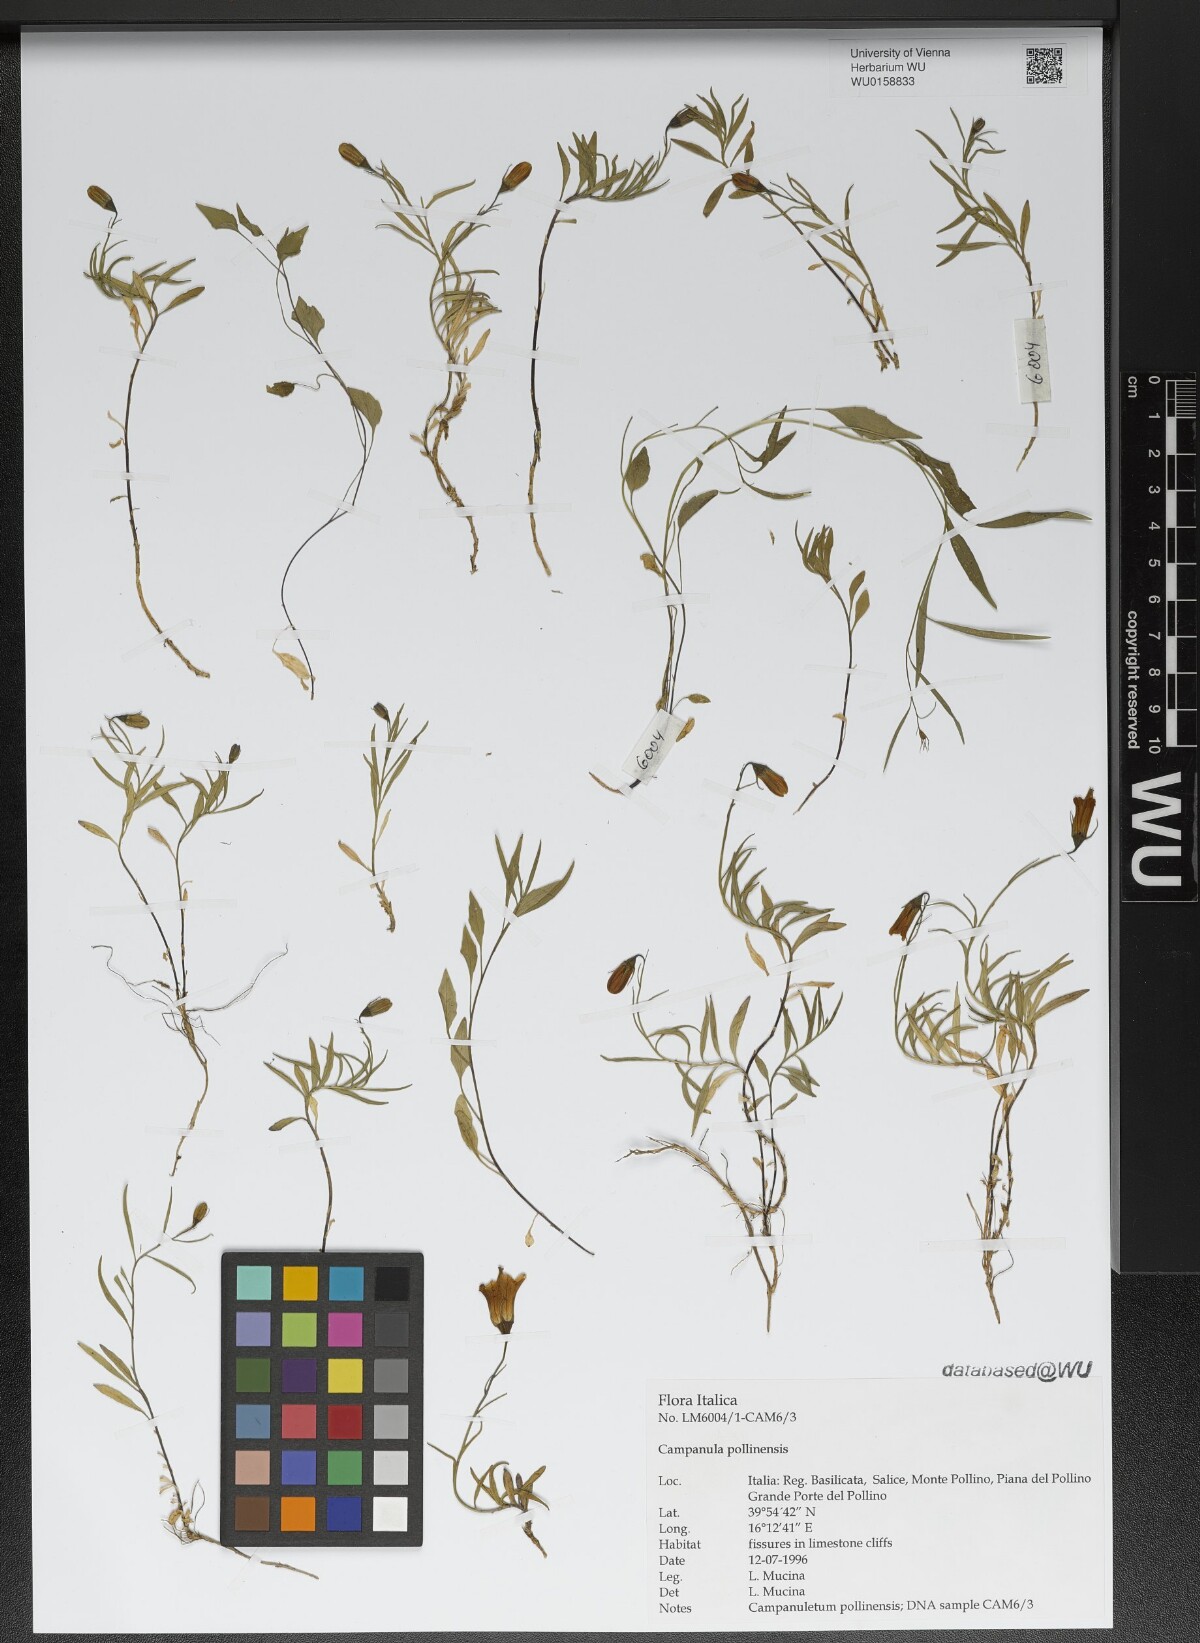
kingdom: Plantae
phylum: Tracheophyta
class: Magnoliopsida
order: Asterales
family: Campanulaceae
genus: Campanula
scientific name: Campanula pollinensis
